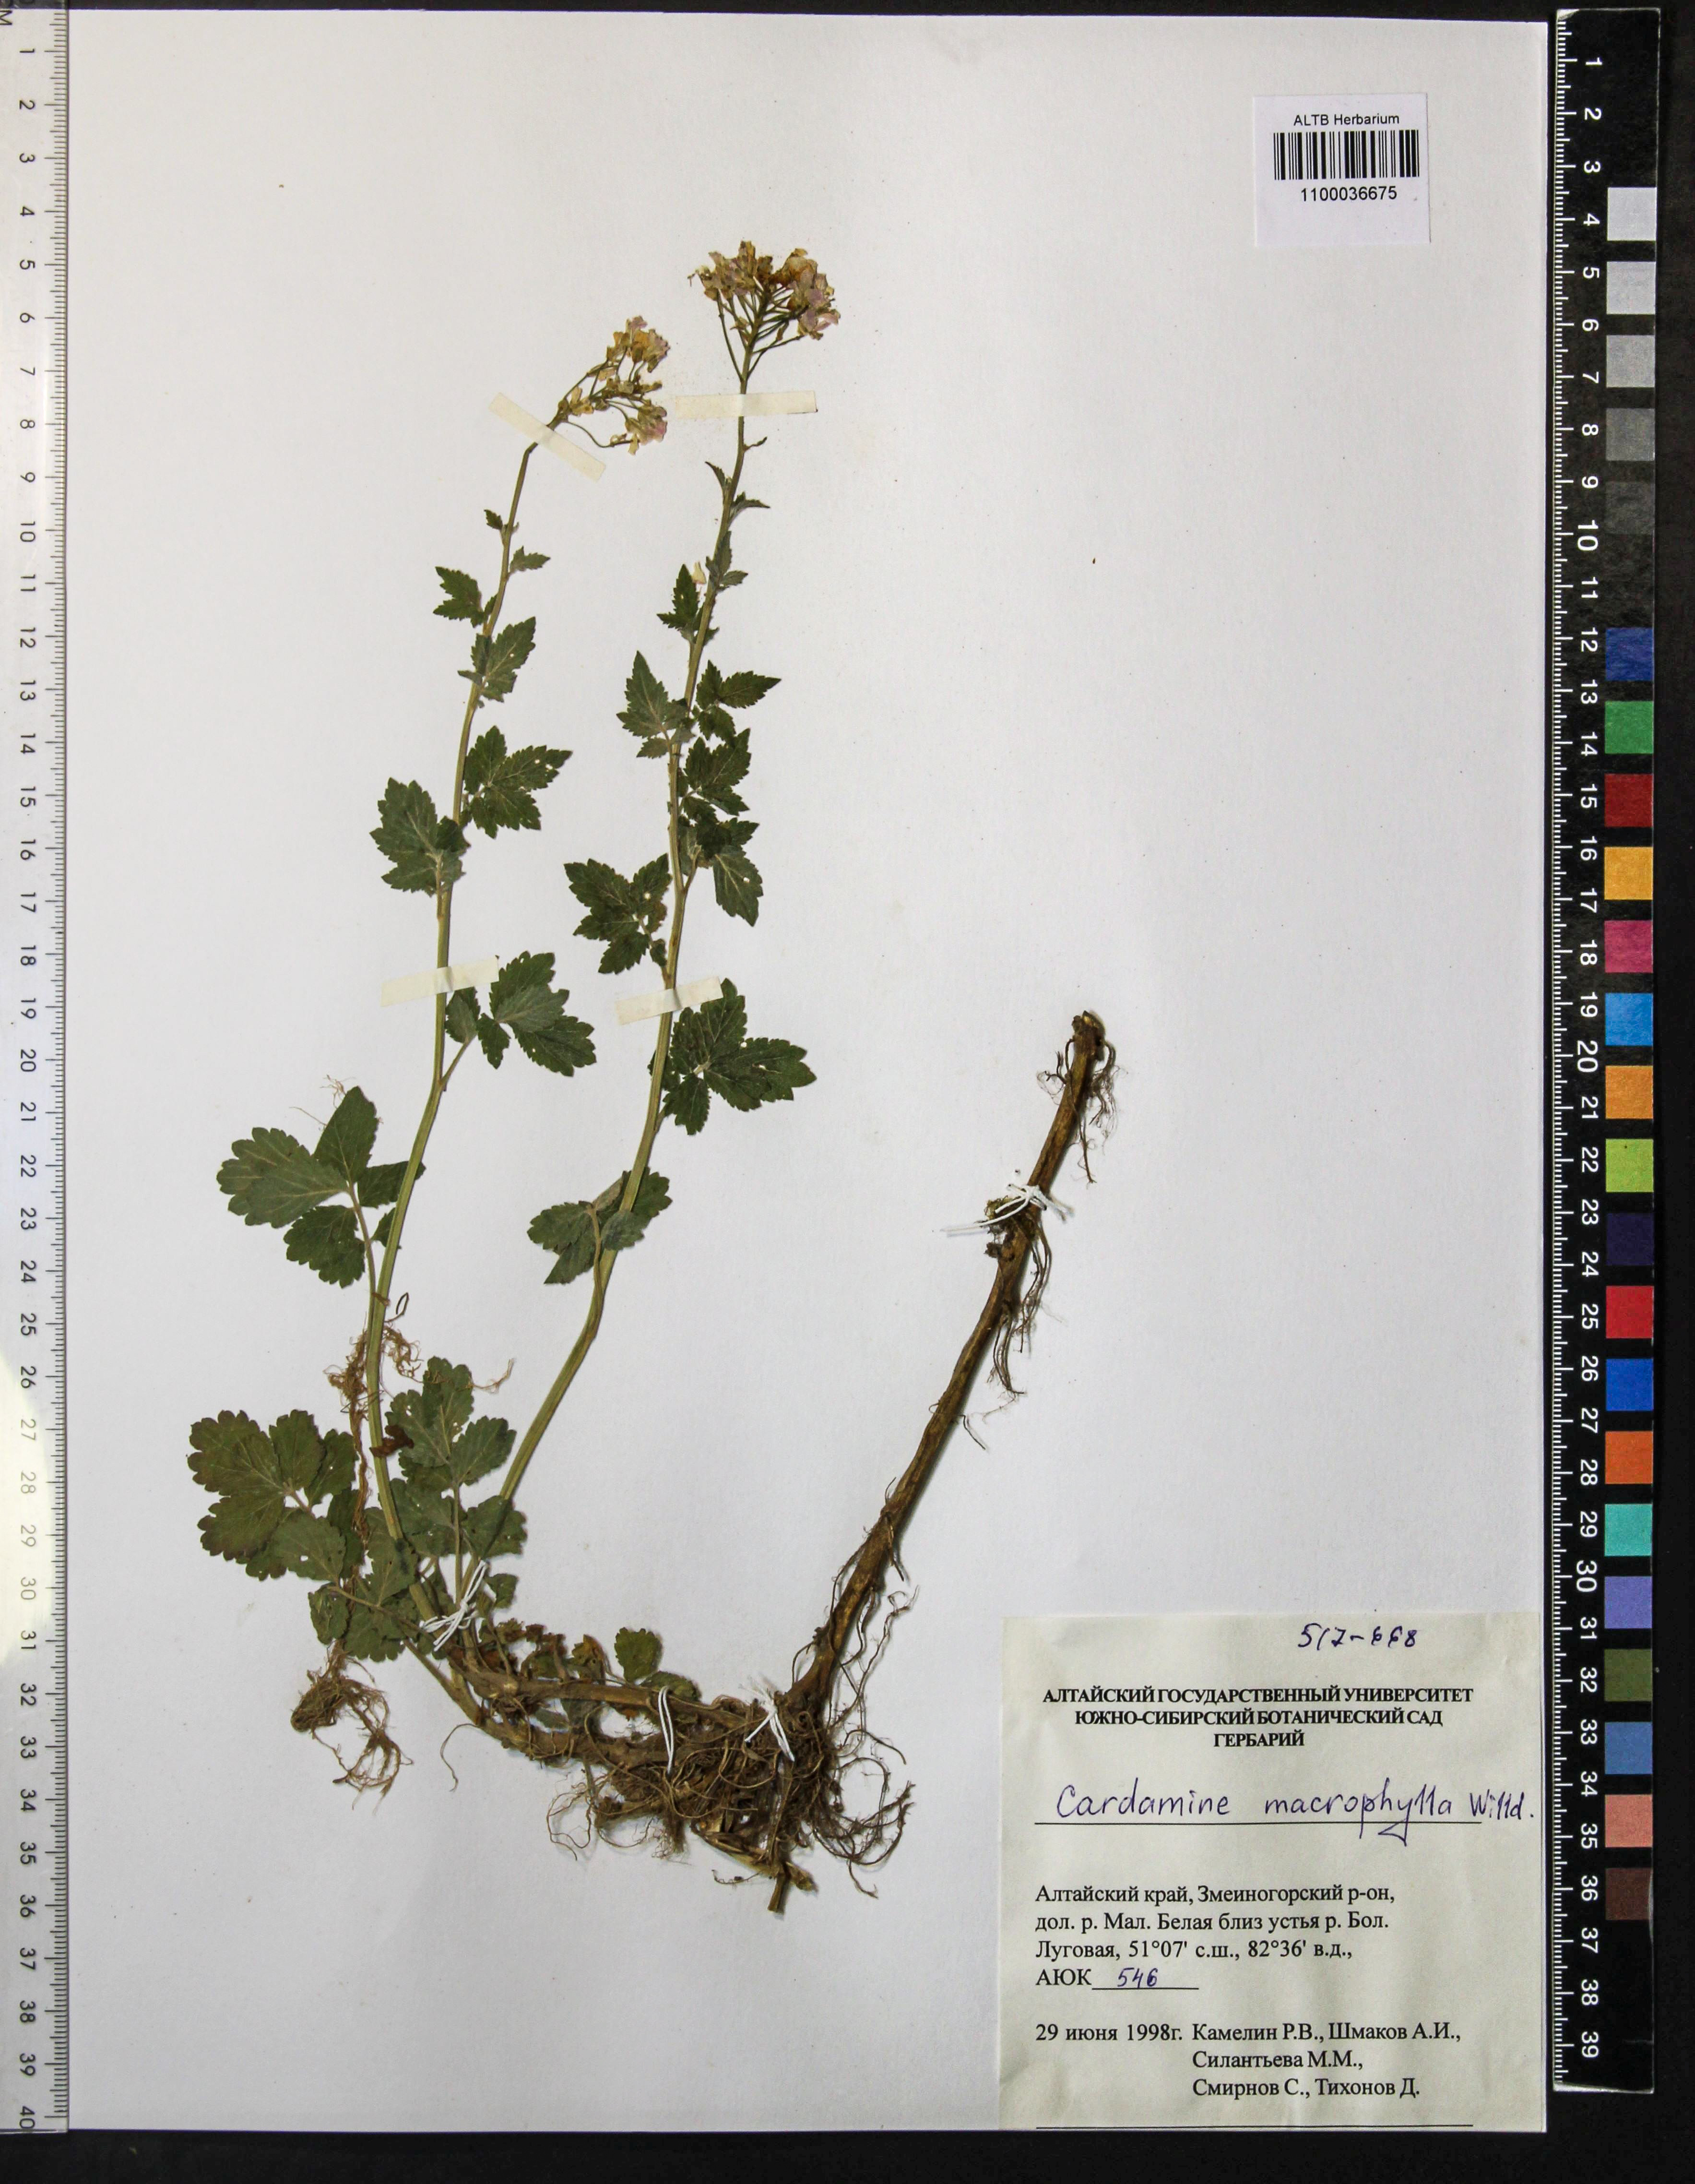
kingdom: Plantae
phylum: Tracheophyta
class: Magnoliopsida
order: Brassicales
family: Brassicaceae
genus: Cardamine
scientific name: Cardamine macrophylla
